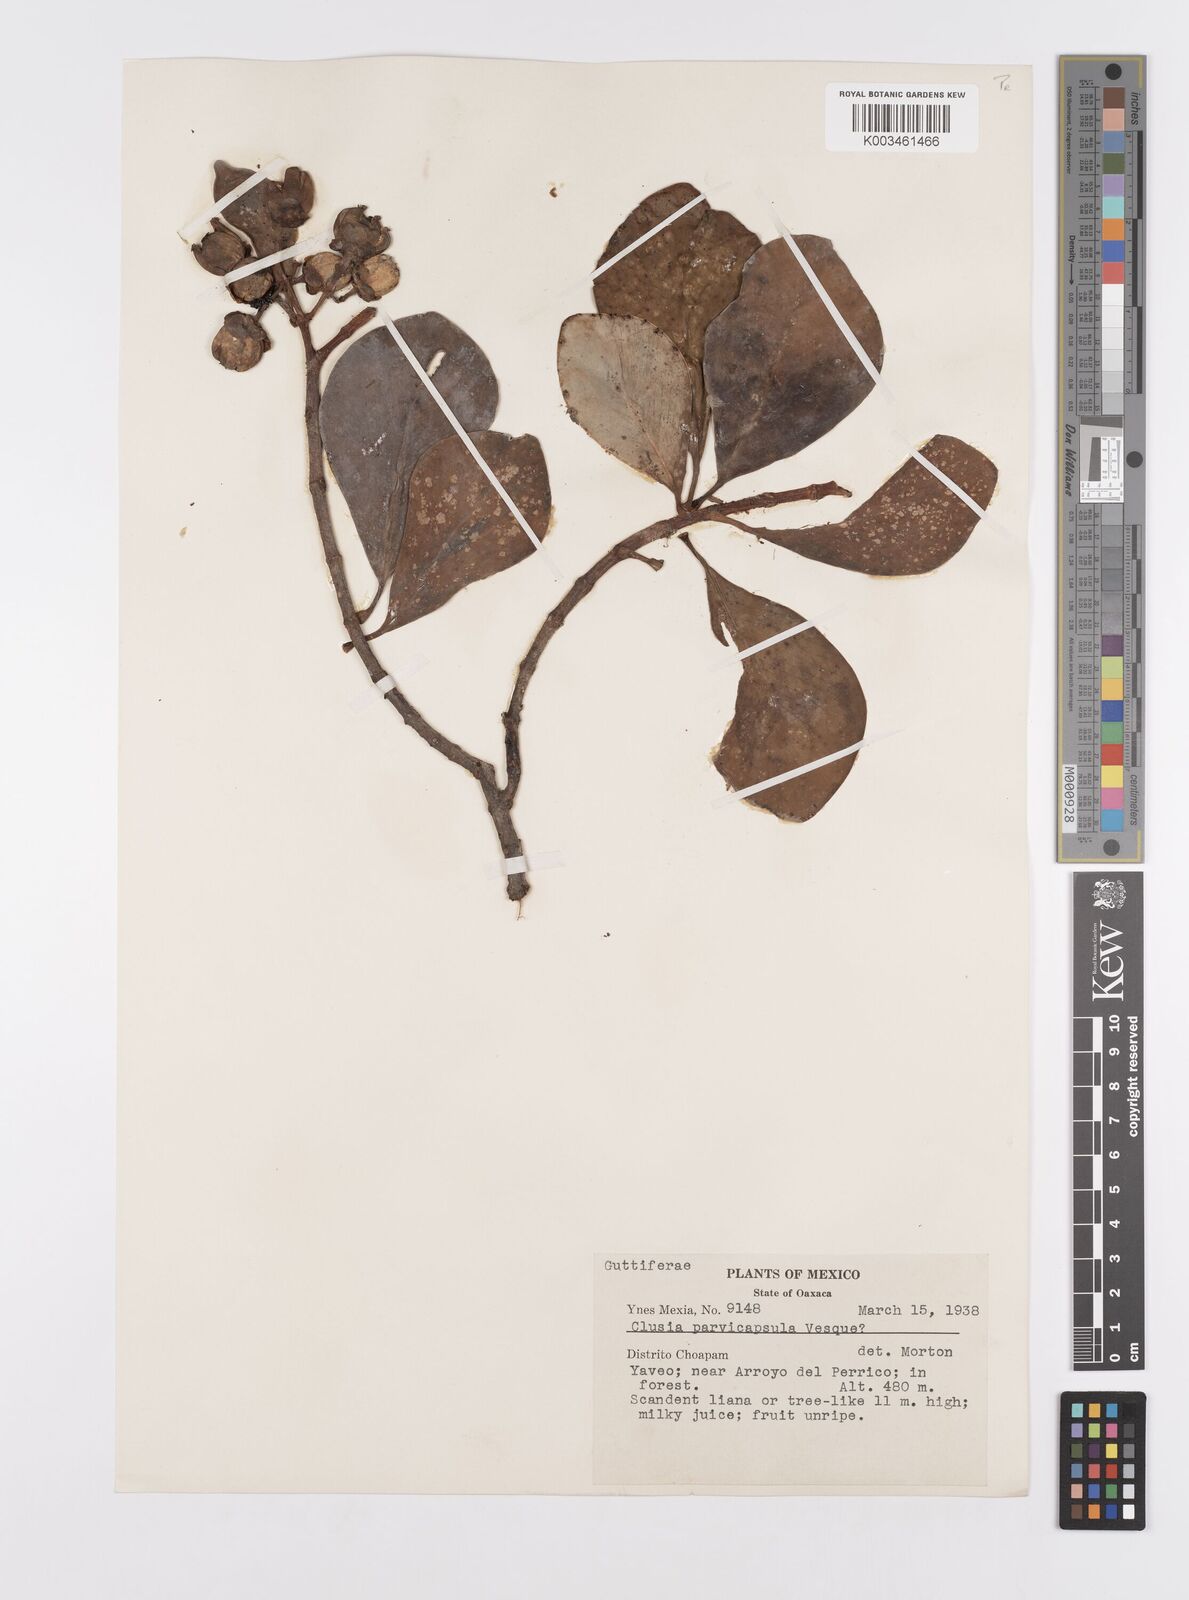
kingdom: Plantae
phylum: Tracheophyta
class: Magnoliopsida
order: Malpighiales
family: Clusiaceae
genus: Clusia
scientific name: Clusia minor
